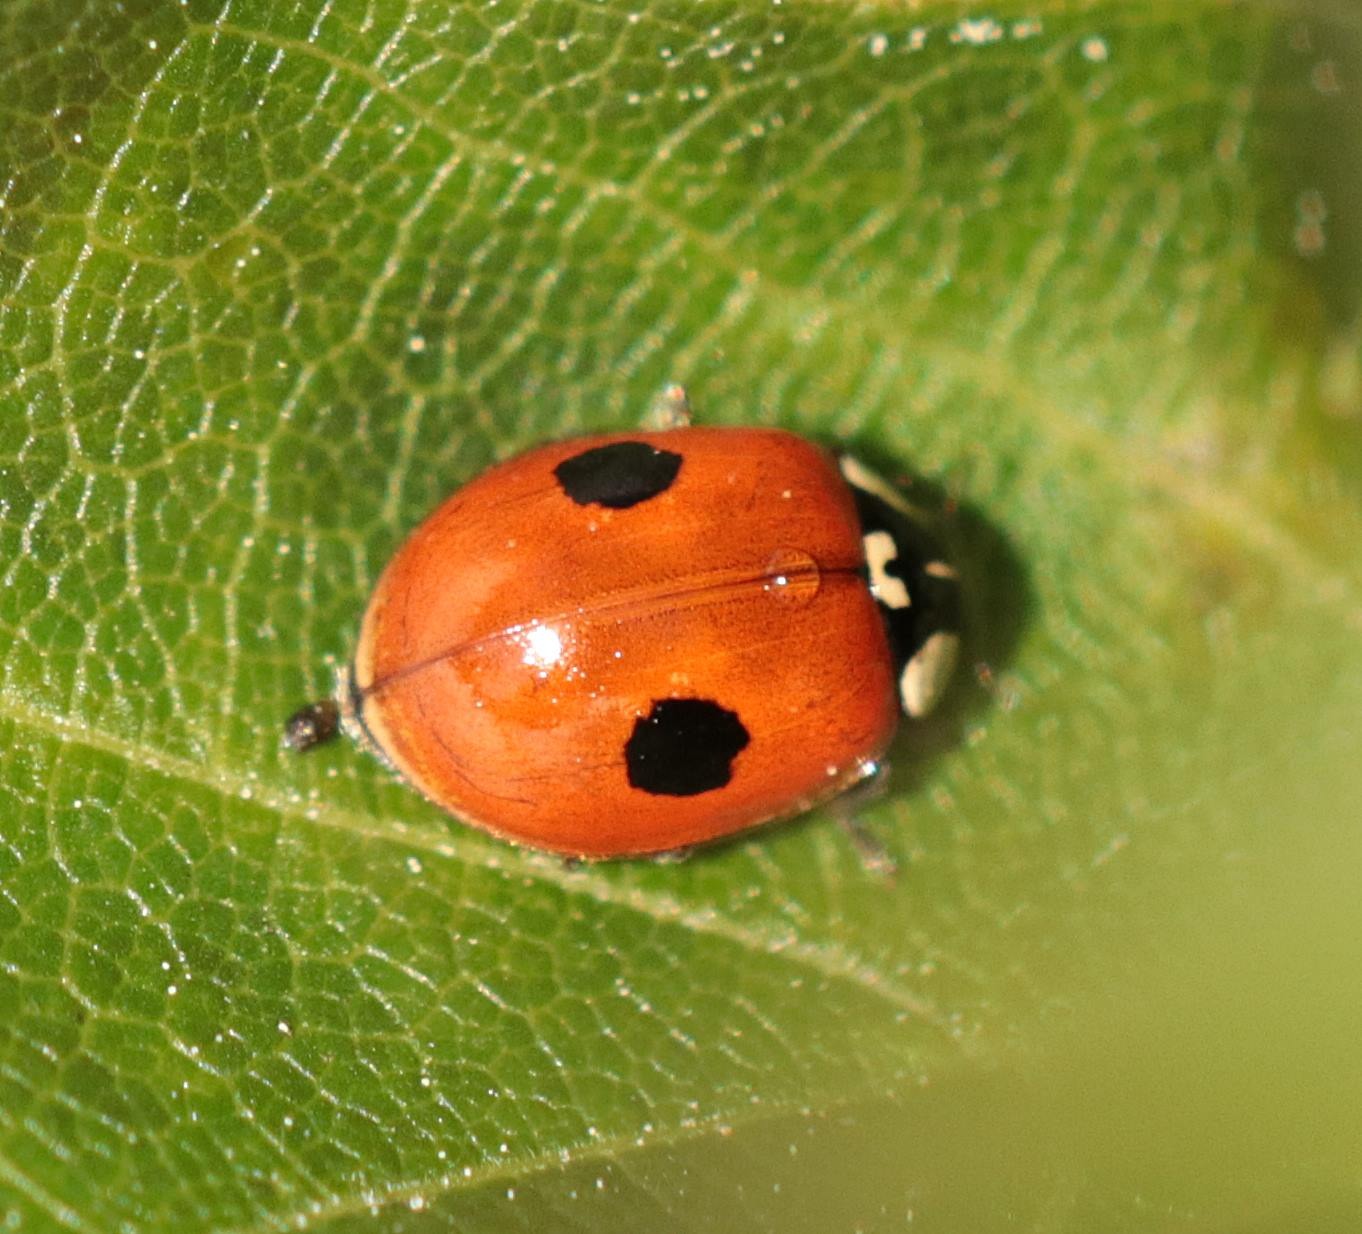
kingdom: Animalia
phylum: Arthropoda
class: Insecta
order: Coleoptera
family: Coccinellidae
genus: Adalia
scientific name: Adalia bipunctata
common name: Toplettet mariehøne
